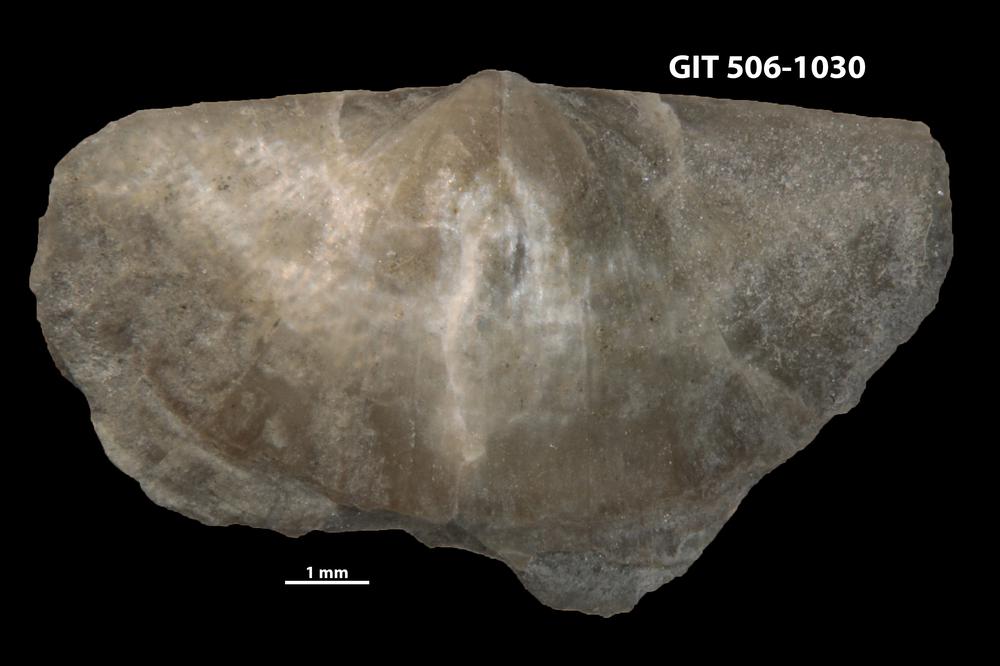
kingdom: Animalia
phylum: Brachiopoda
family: Leptellinidae
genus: Leangella
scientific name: Leangella Leptaena segmentum
